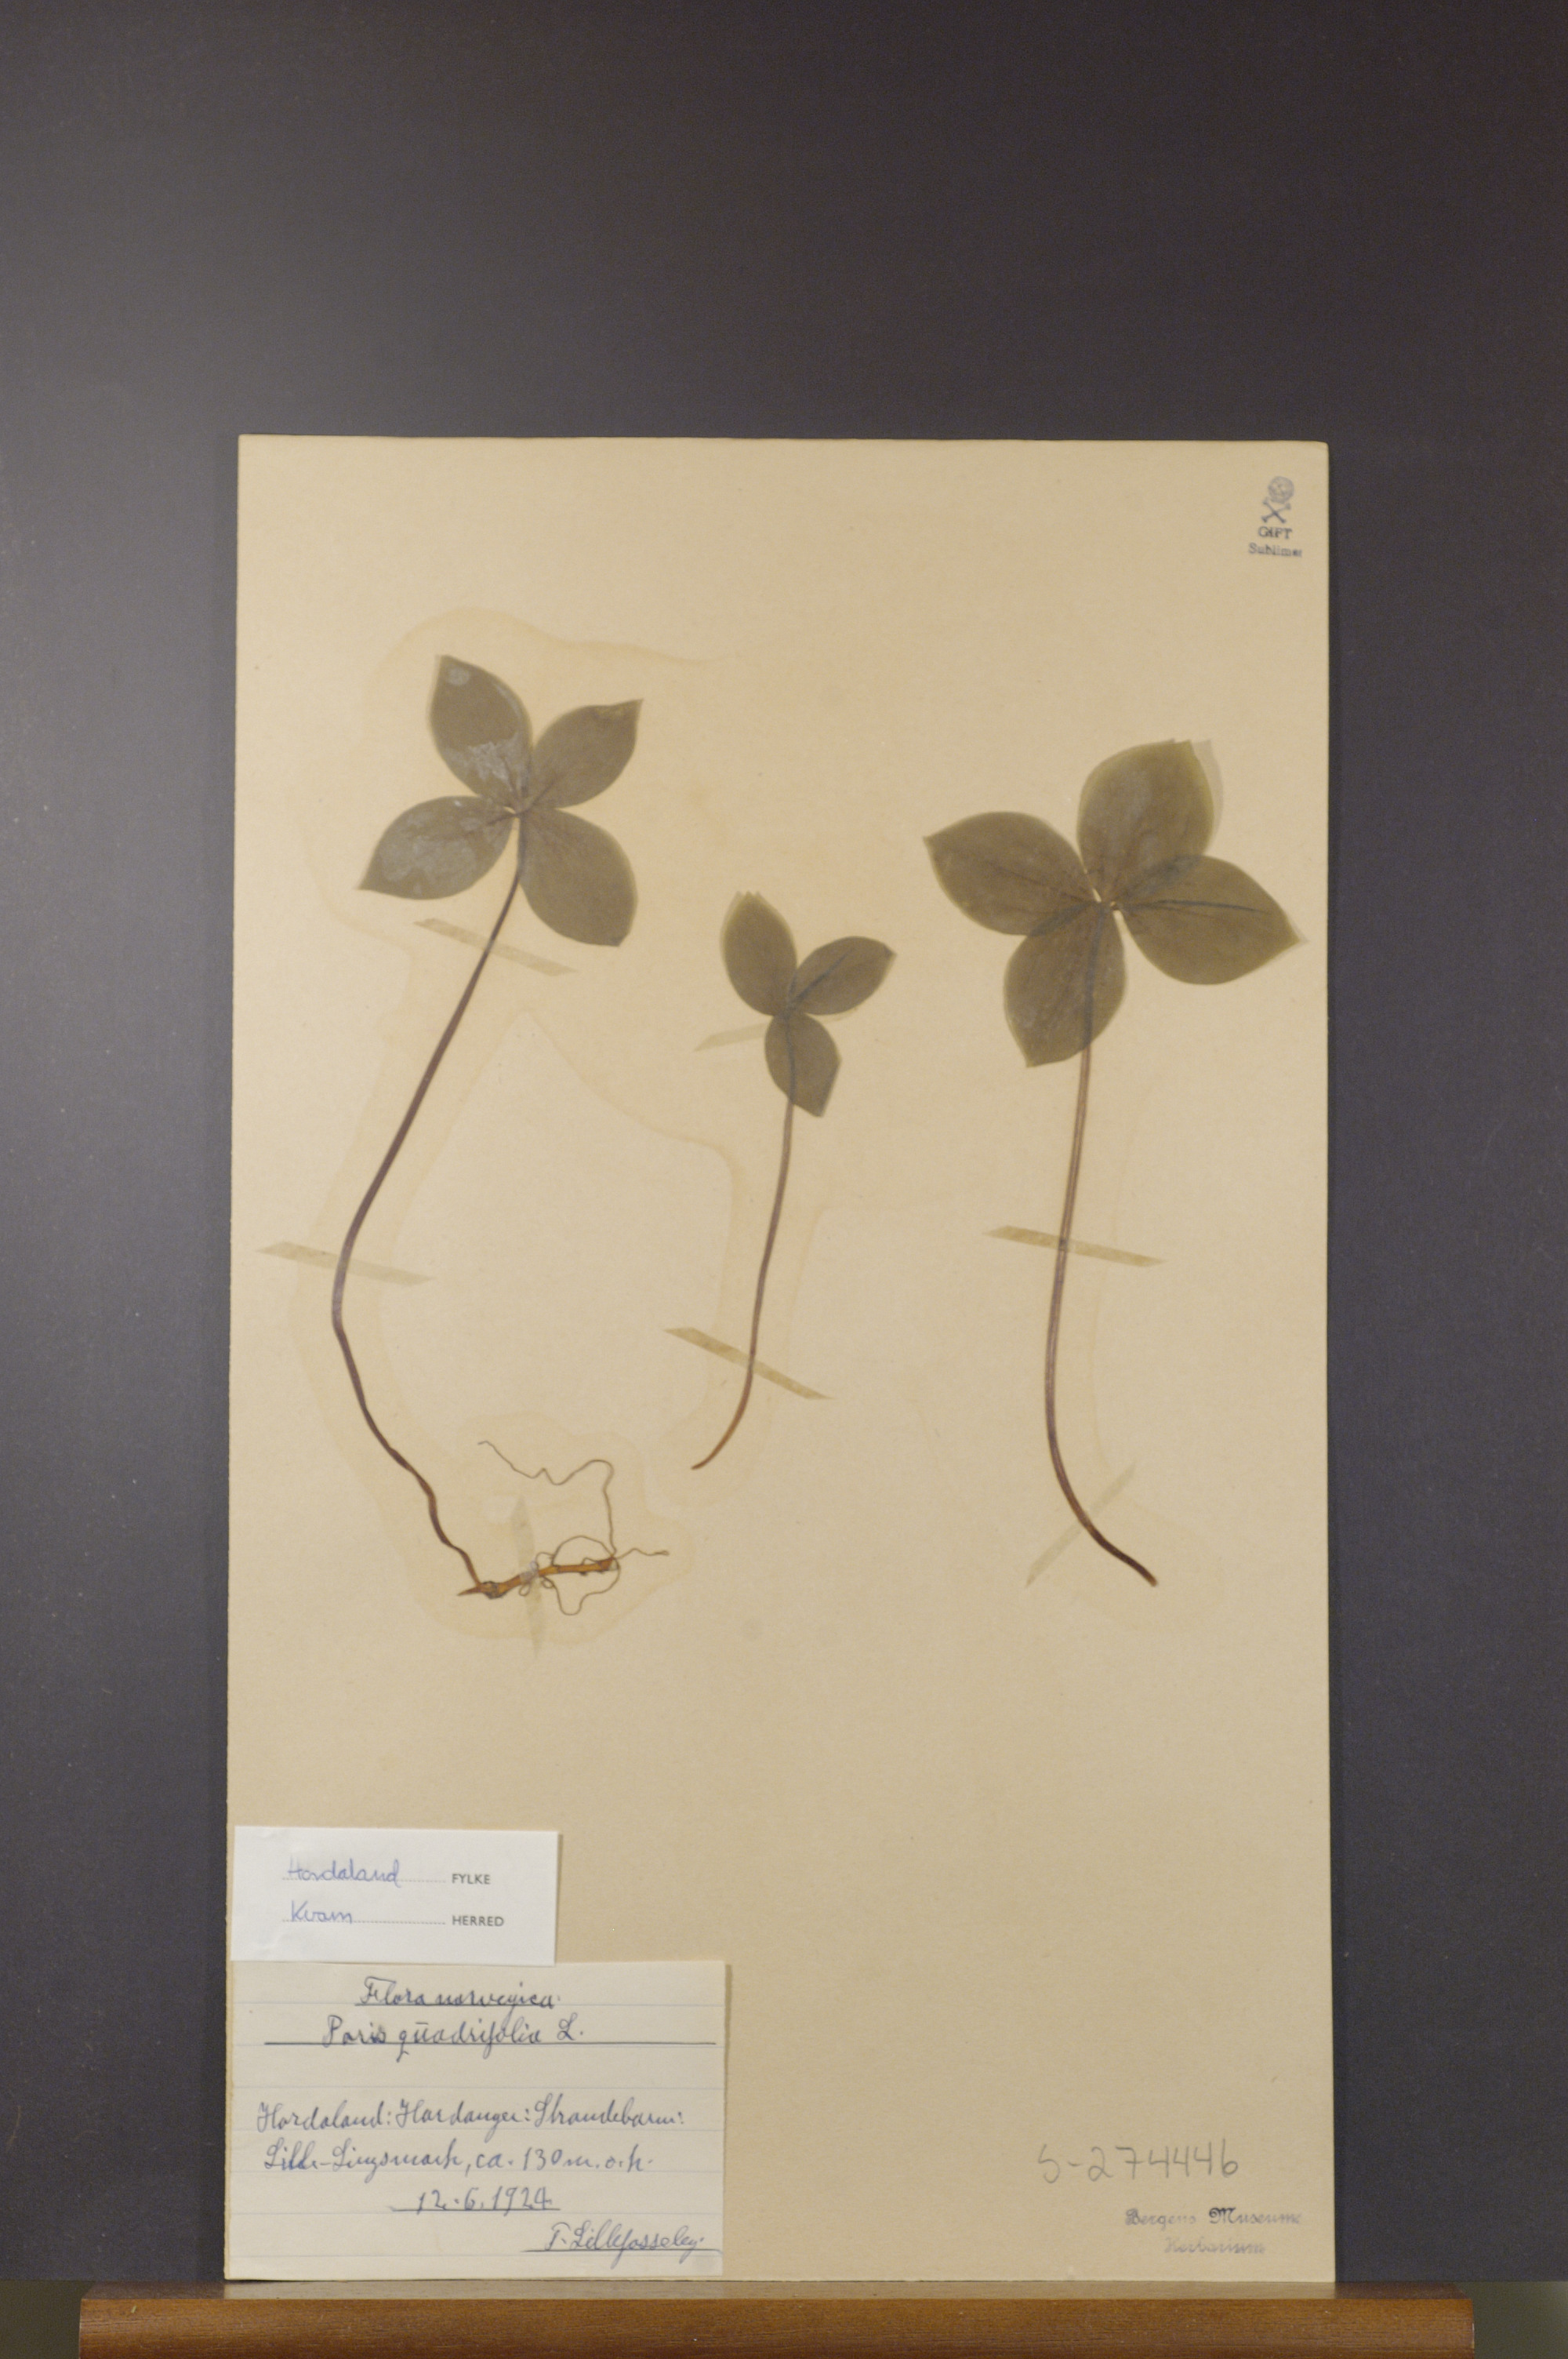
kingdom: Plantae
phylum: Tracheophyta
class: Liliopsida
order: Liliales
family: Melanthiaceae
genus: Paris
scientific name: Paris quadrifolia
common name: Herb-paris
